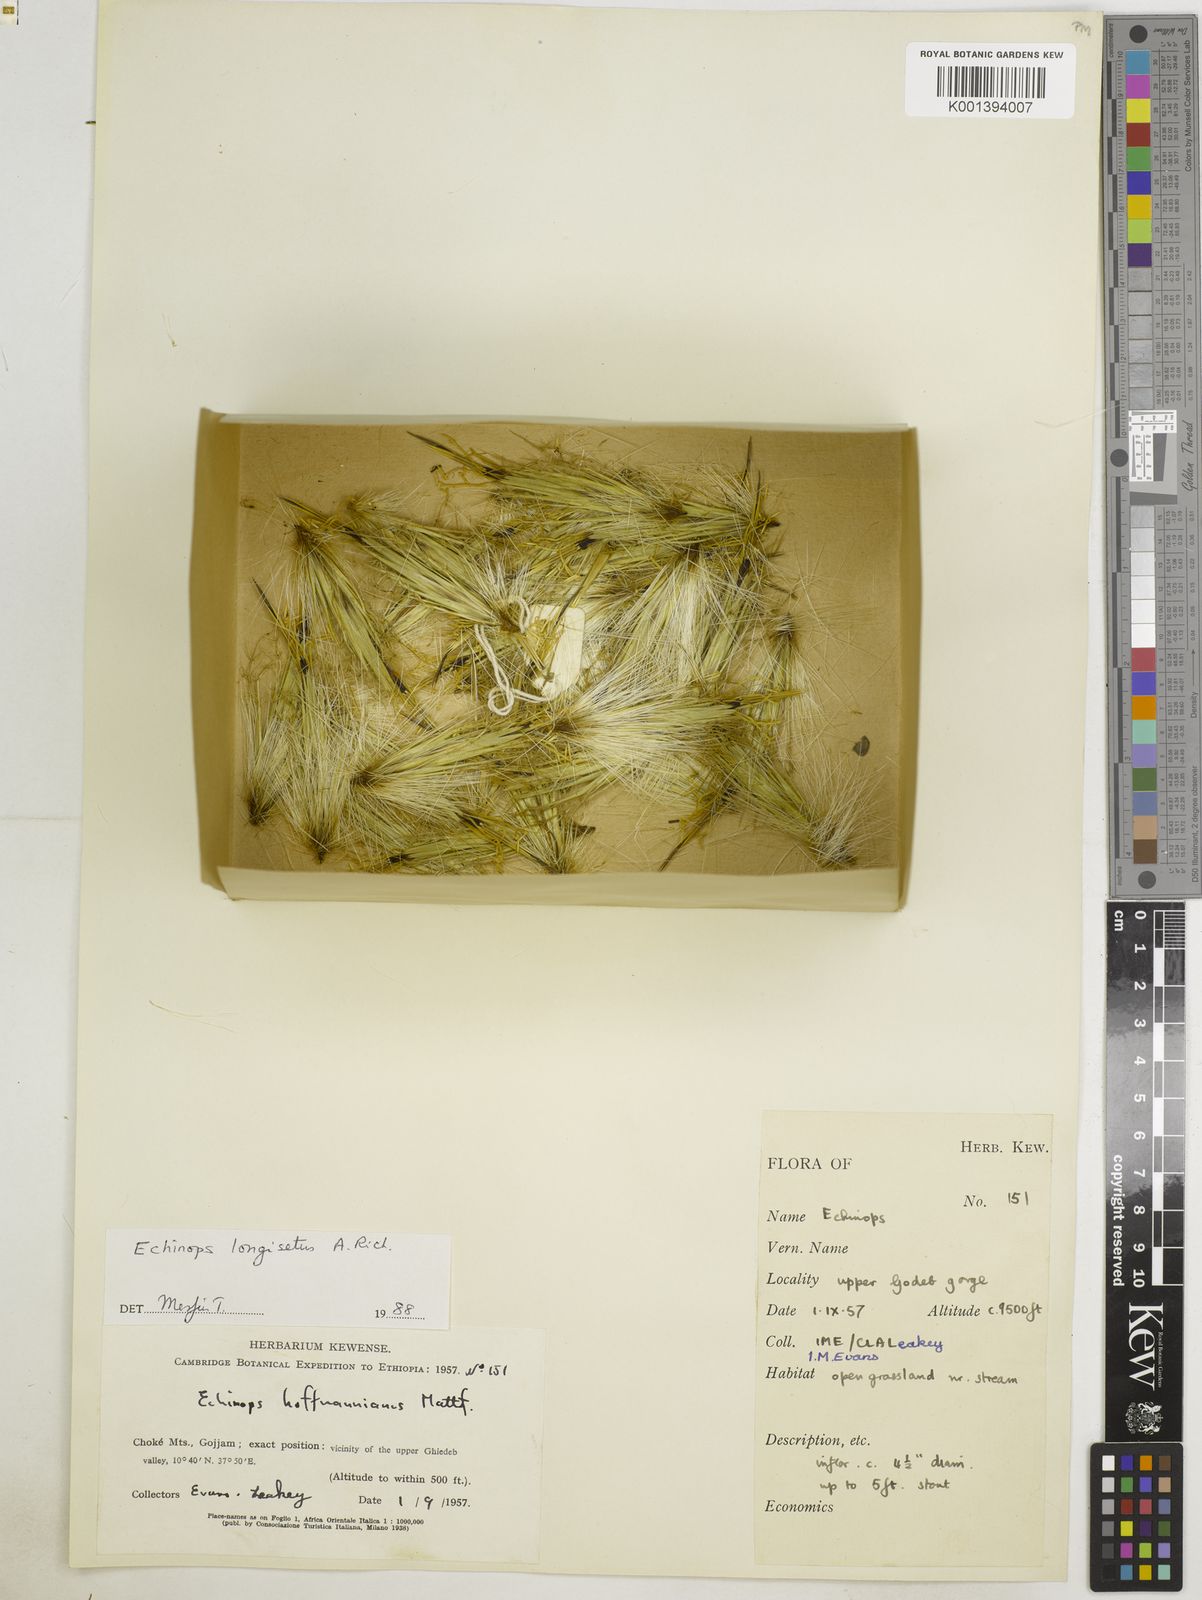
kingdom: Plantae
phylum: Tracheophyta
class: Magnoliopsida
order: Asterales
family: Asteraceae
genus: Echinops
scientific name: Echinops longisetus
